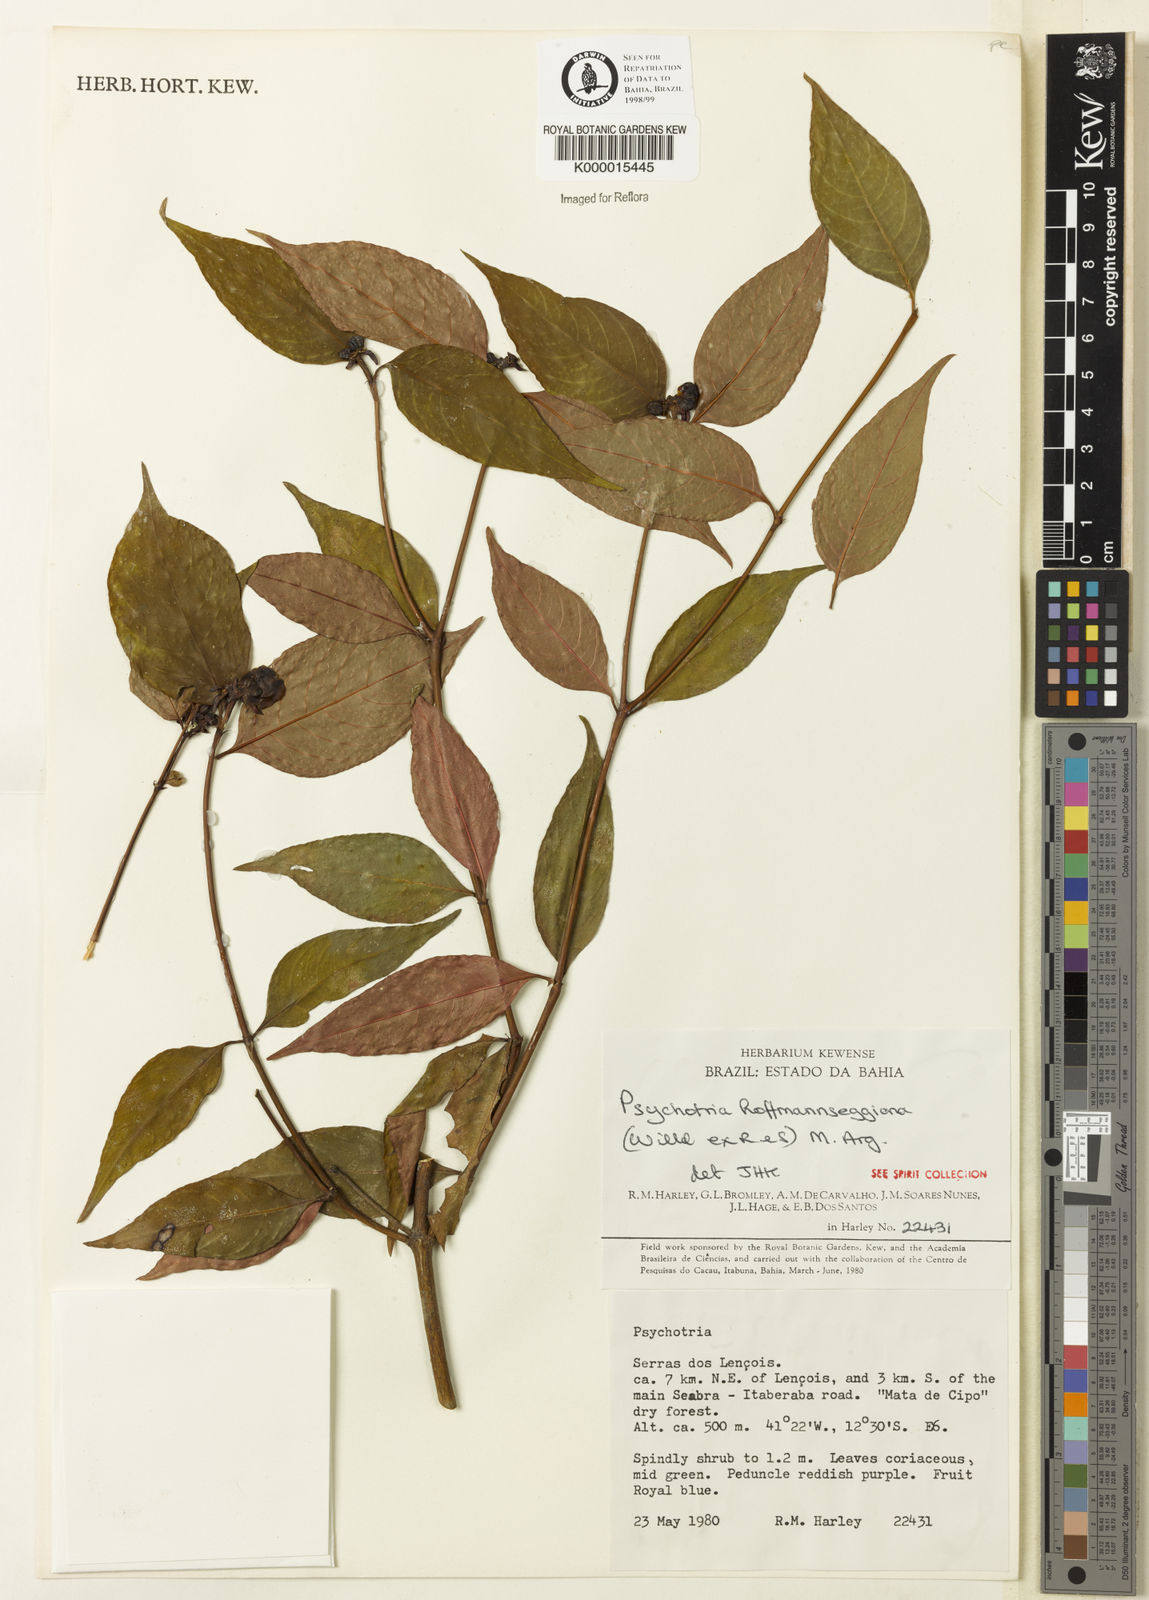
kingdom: Plantae
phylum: Tracheophyta
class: Magnoliopsida
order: Gentianales
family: Rubiaceae
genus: Psychotria
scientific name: Psychotria
